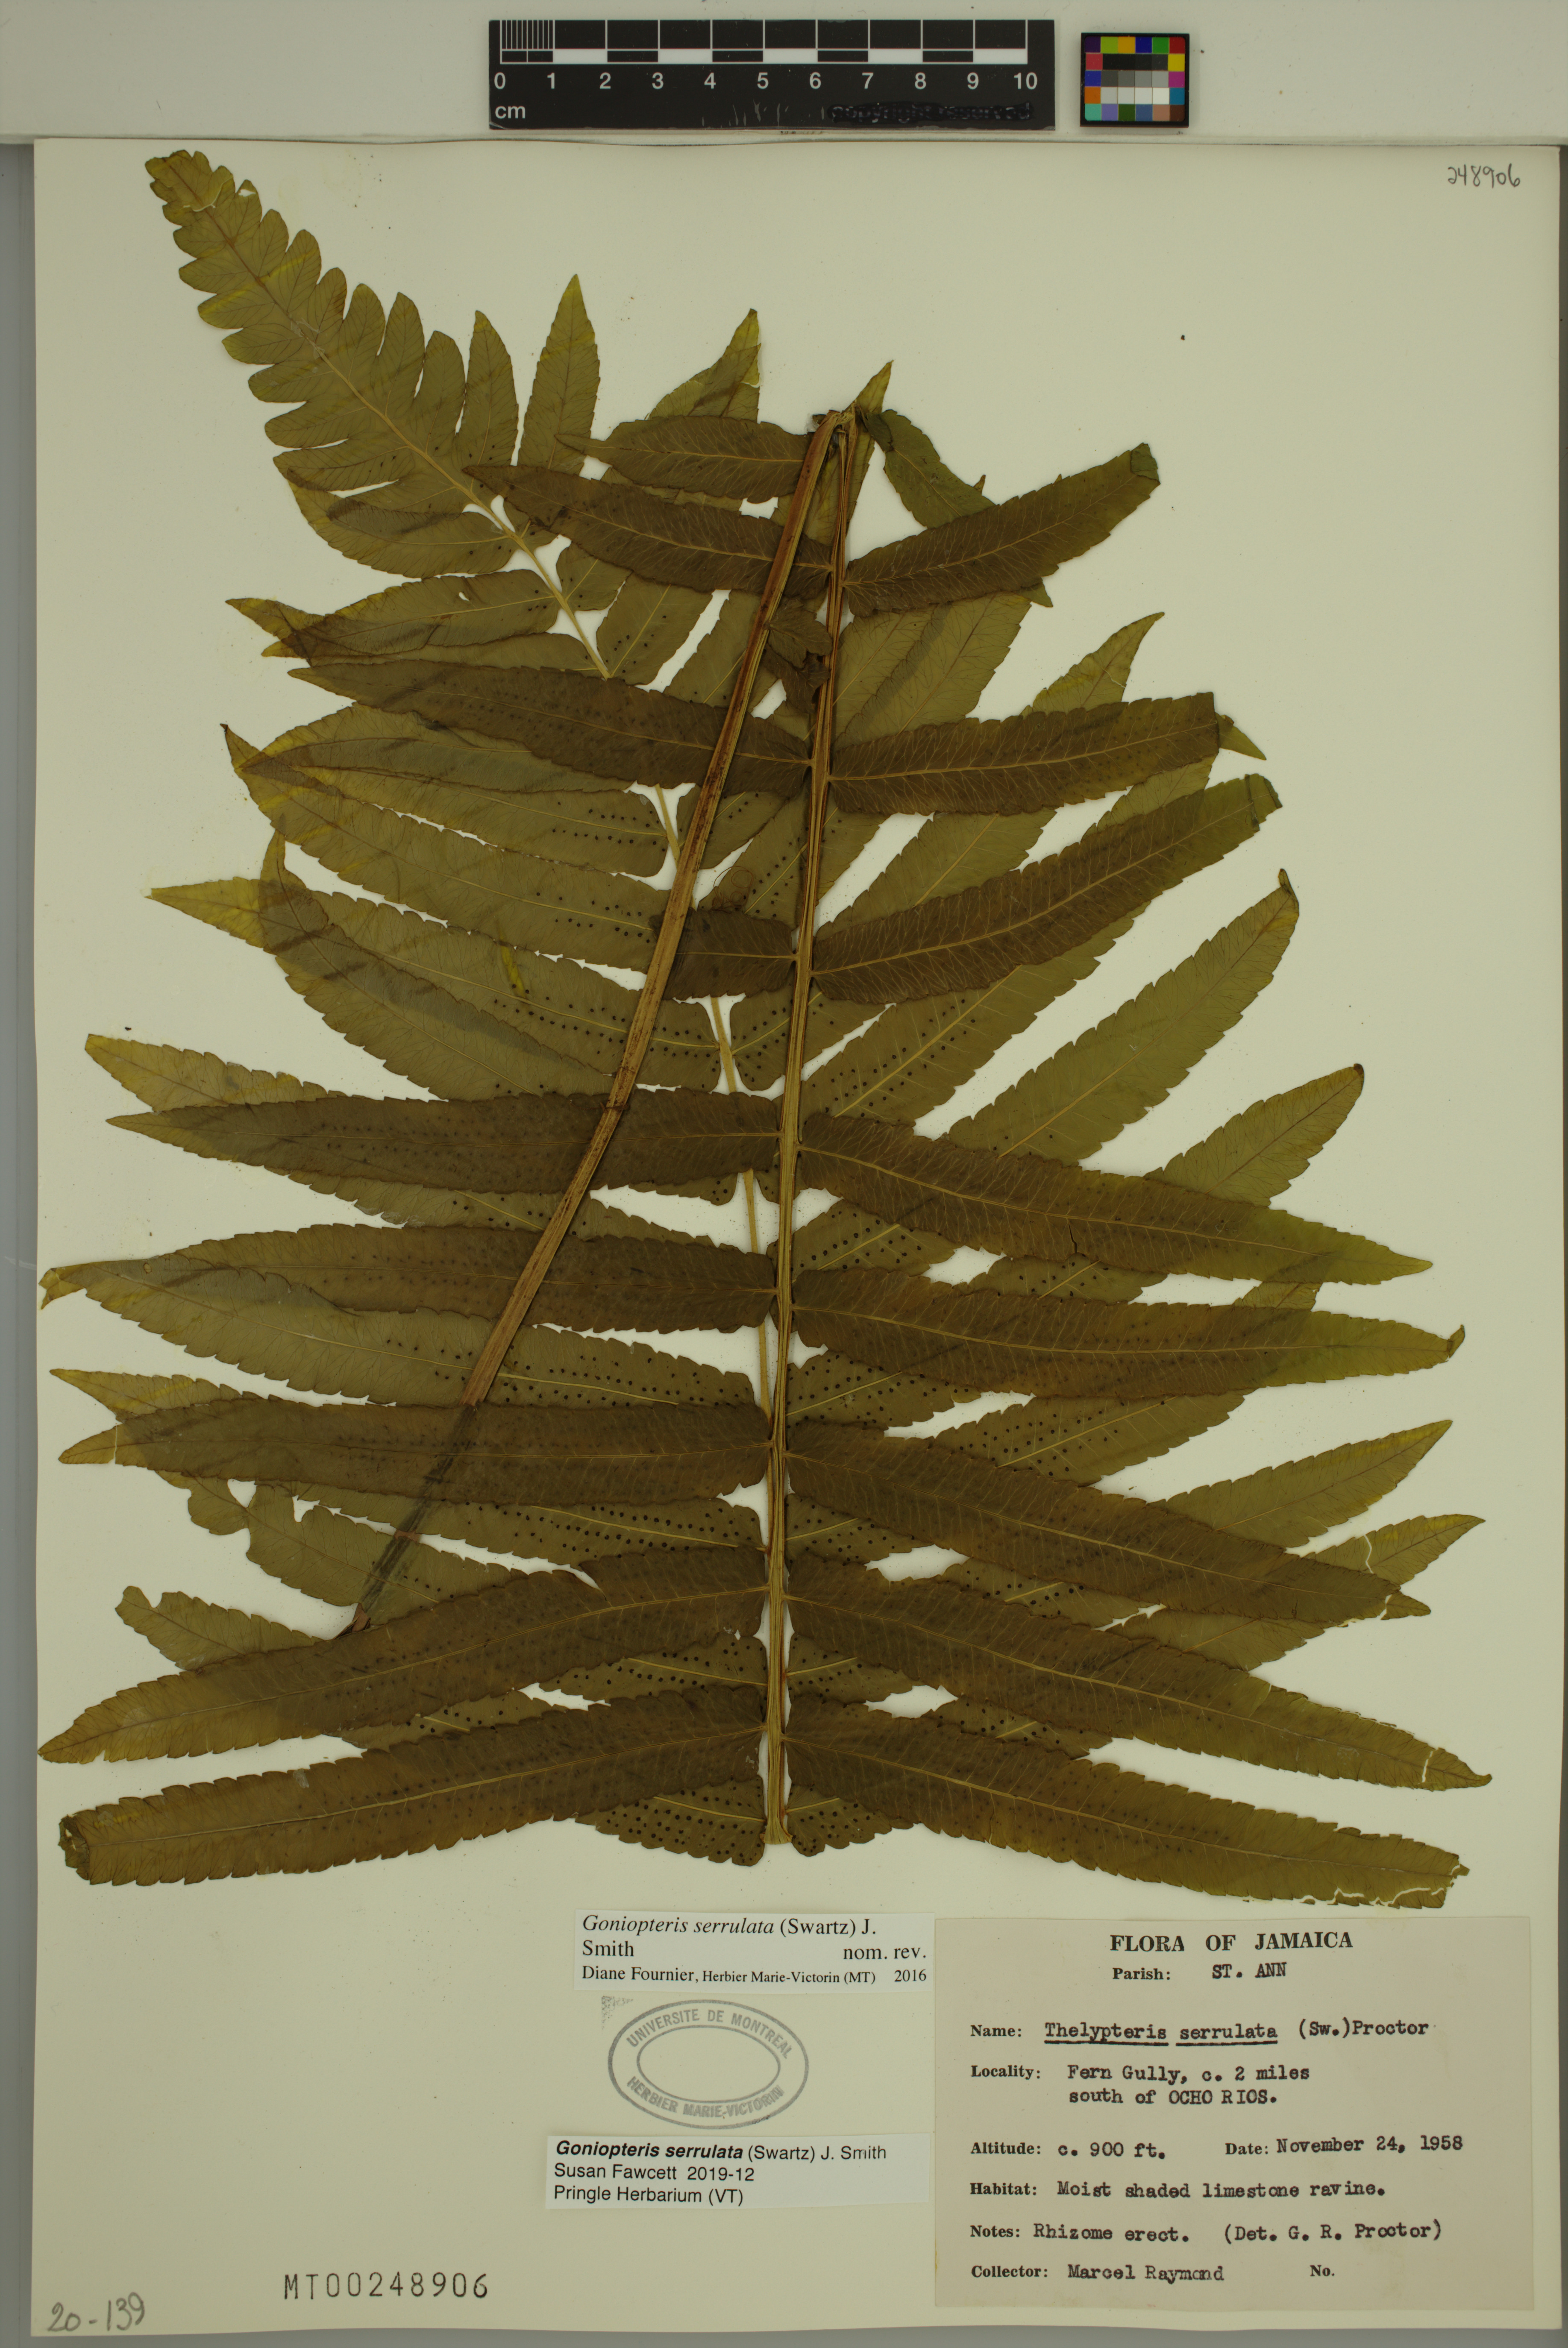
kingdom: Plantae
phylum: Tracheophyta
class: Polypodiopsida
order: Polypodiales
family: Thelypteridaceae
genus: Goniopteris
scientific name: Goniopteris serrulata
